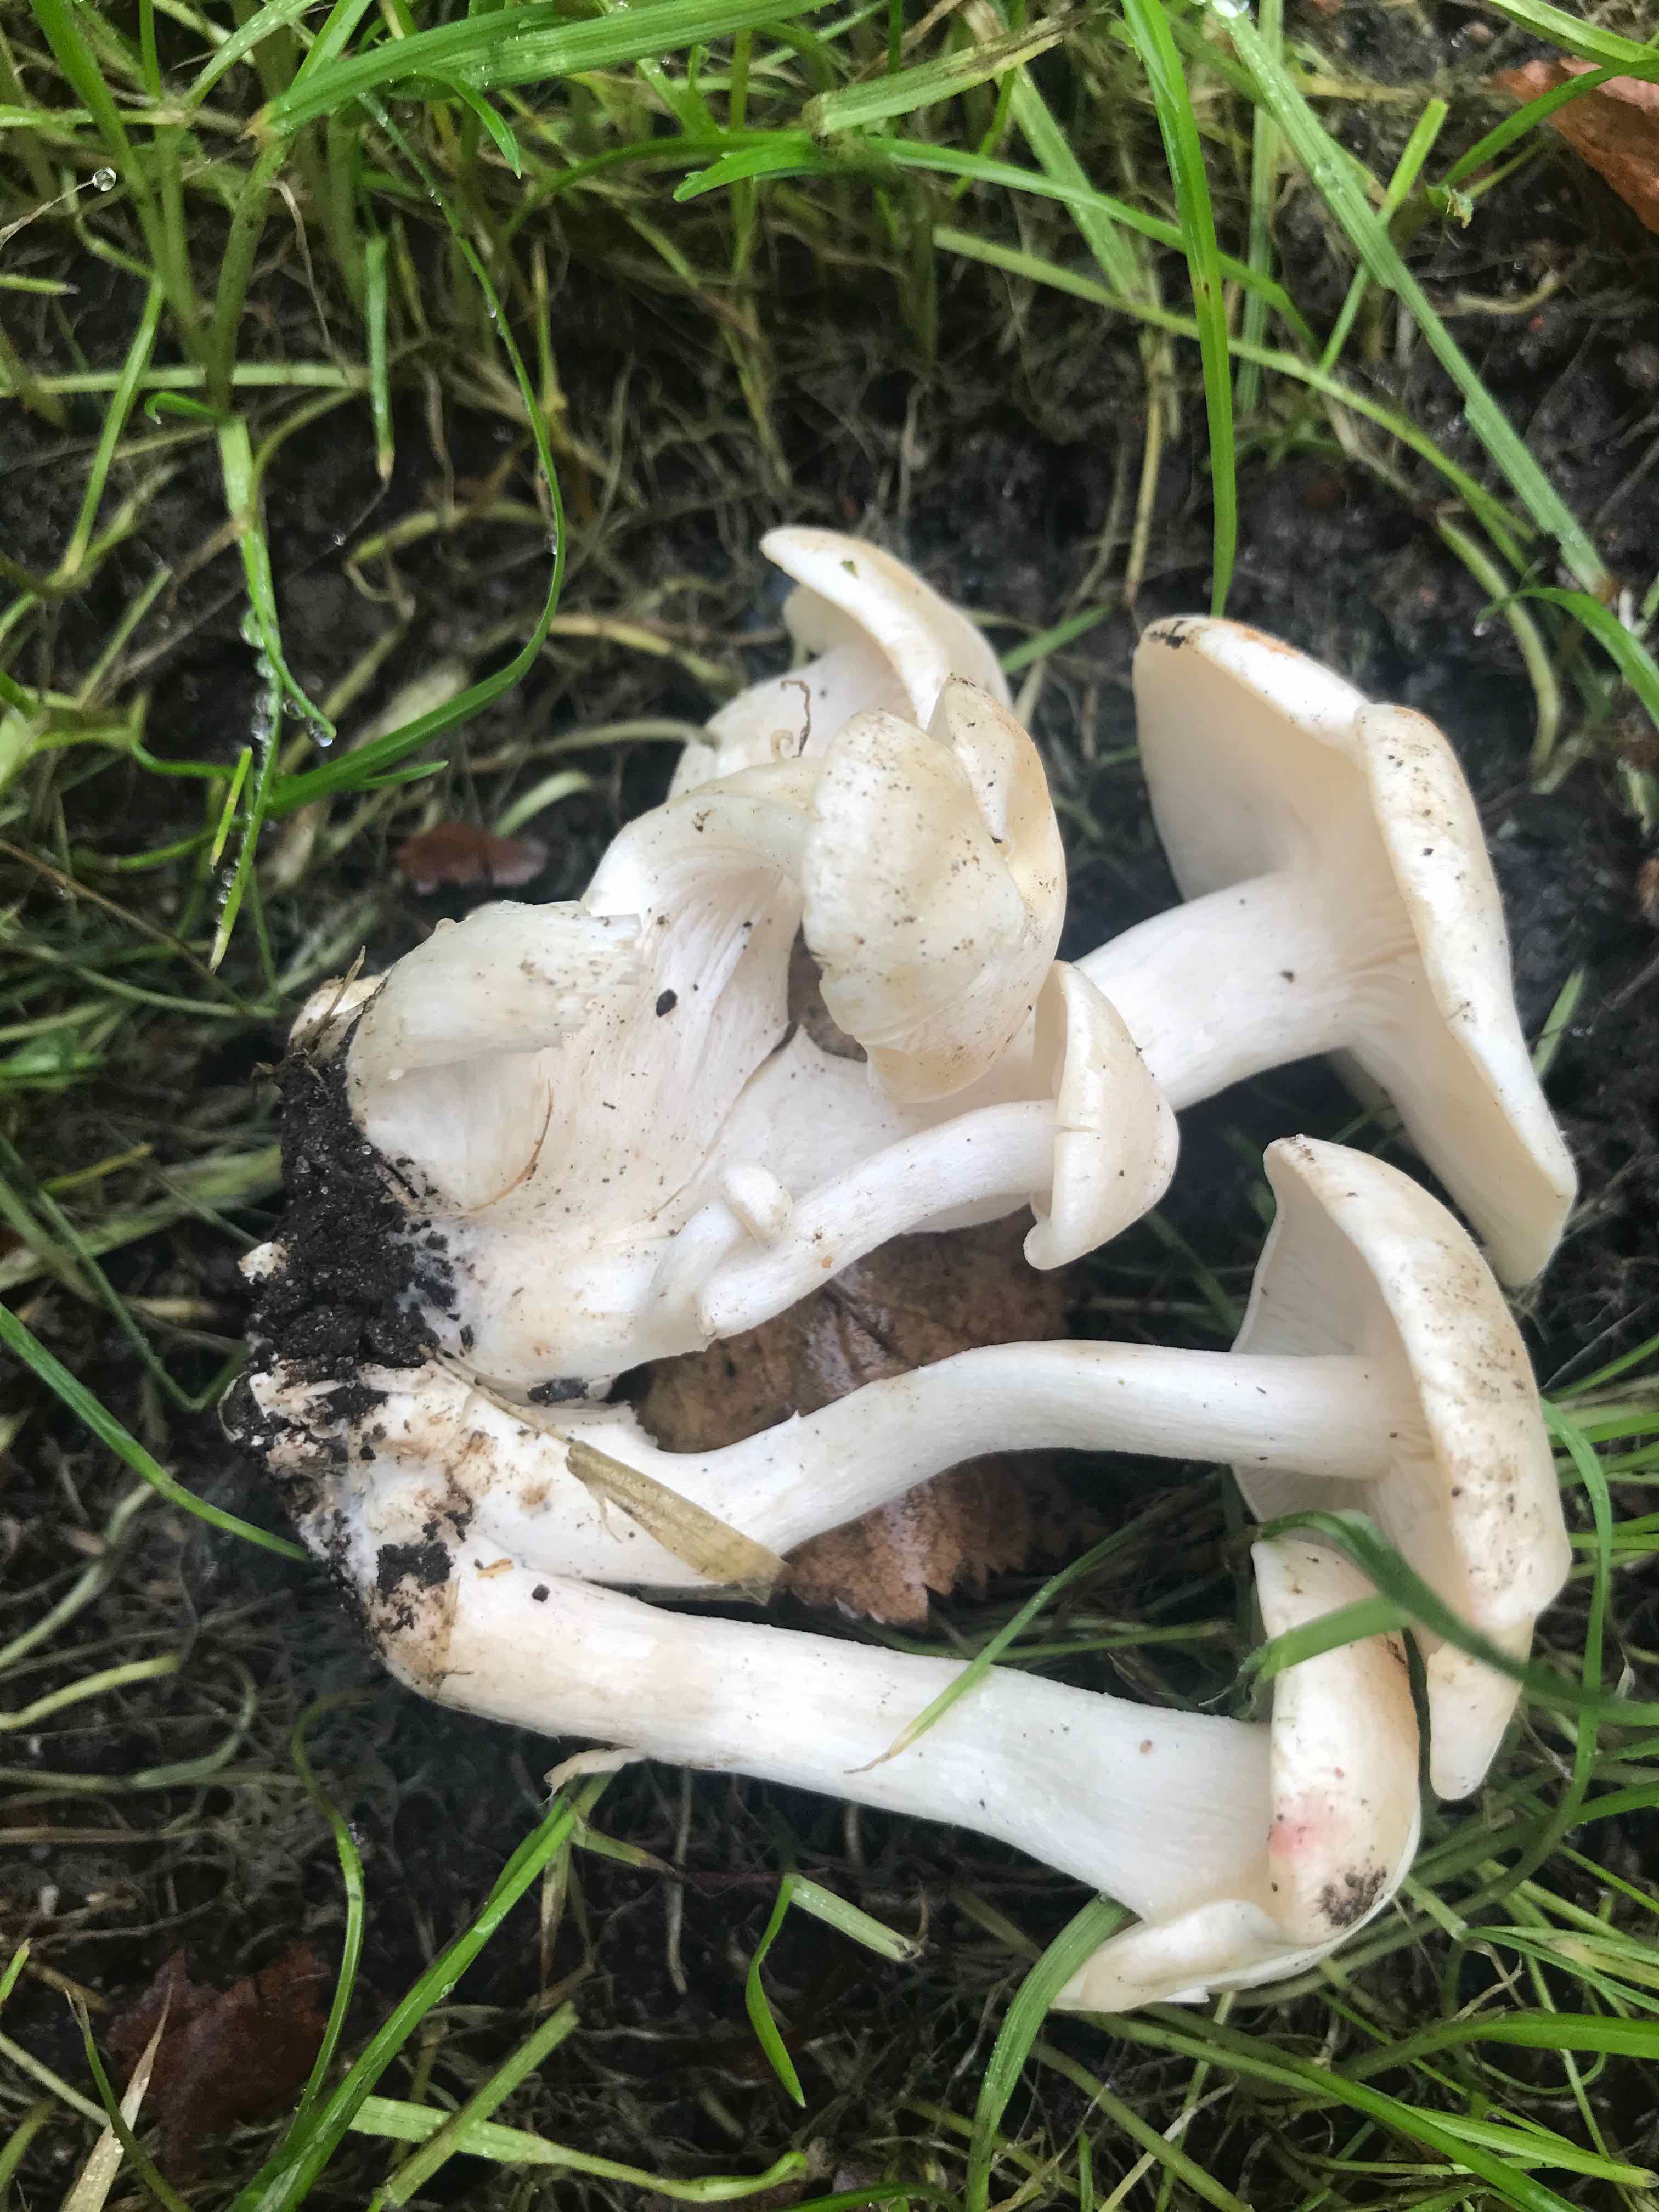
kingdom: Fungi
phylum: Basidiomycota
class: Agaricomycetes
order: Agaricales
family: Tricholomataceae
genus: Leucocybe
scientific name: Leucocybe connata
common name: knippe-tragthat
